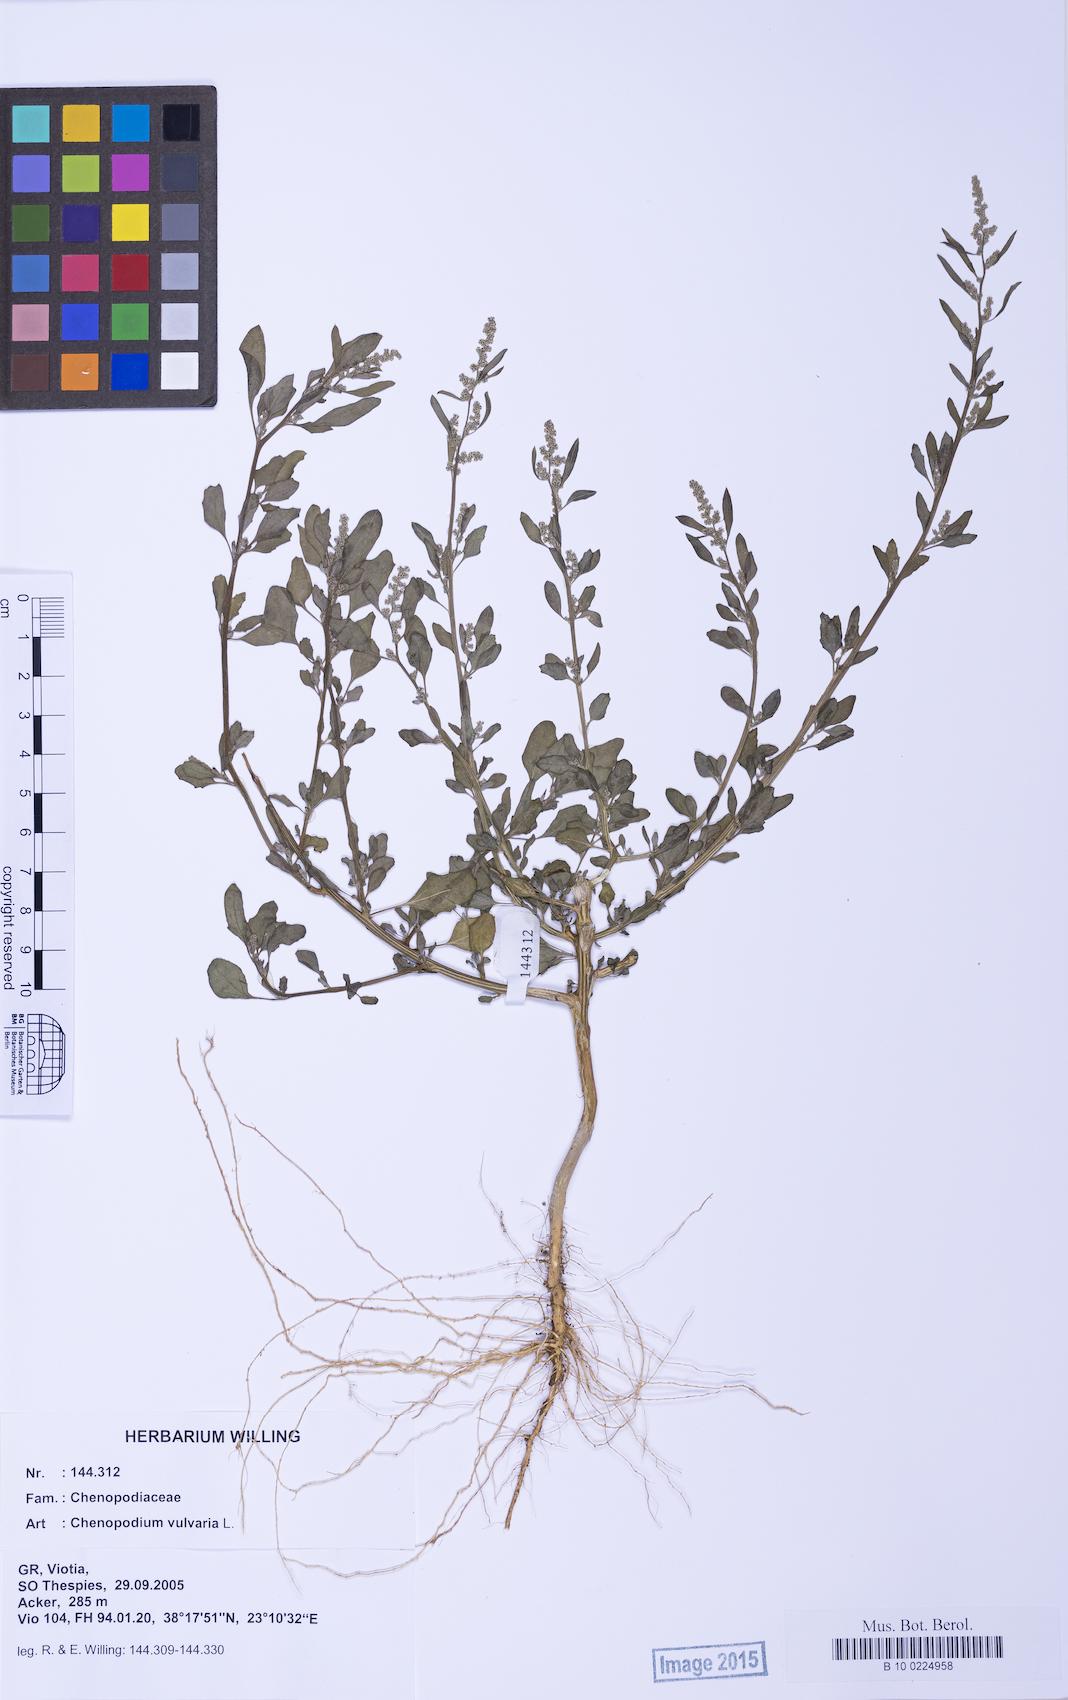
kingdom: Plantae
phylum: Tracheophyta
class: Magnoliopsida
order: Caryophyllales
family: Amaranthaceae
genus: Chenopodium
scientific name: Chenopodium vulvaria
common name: Stinking goosefoot
